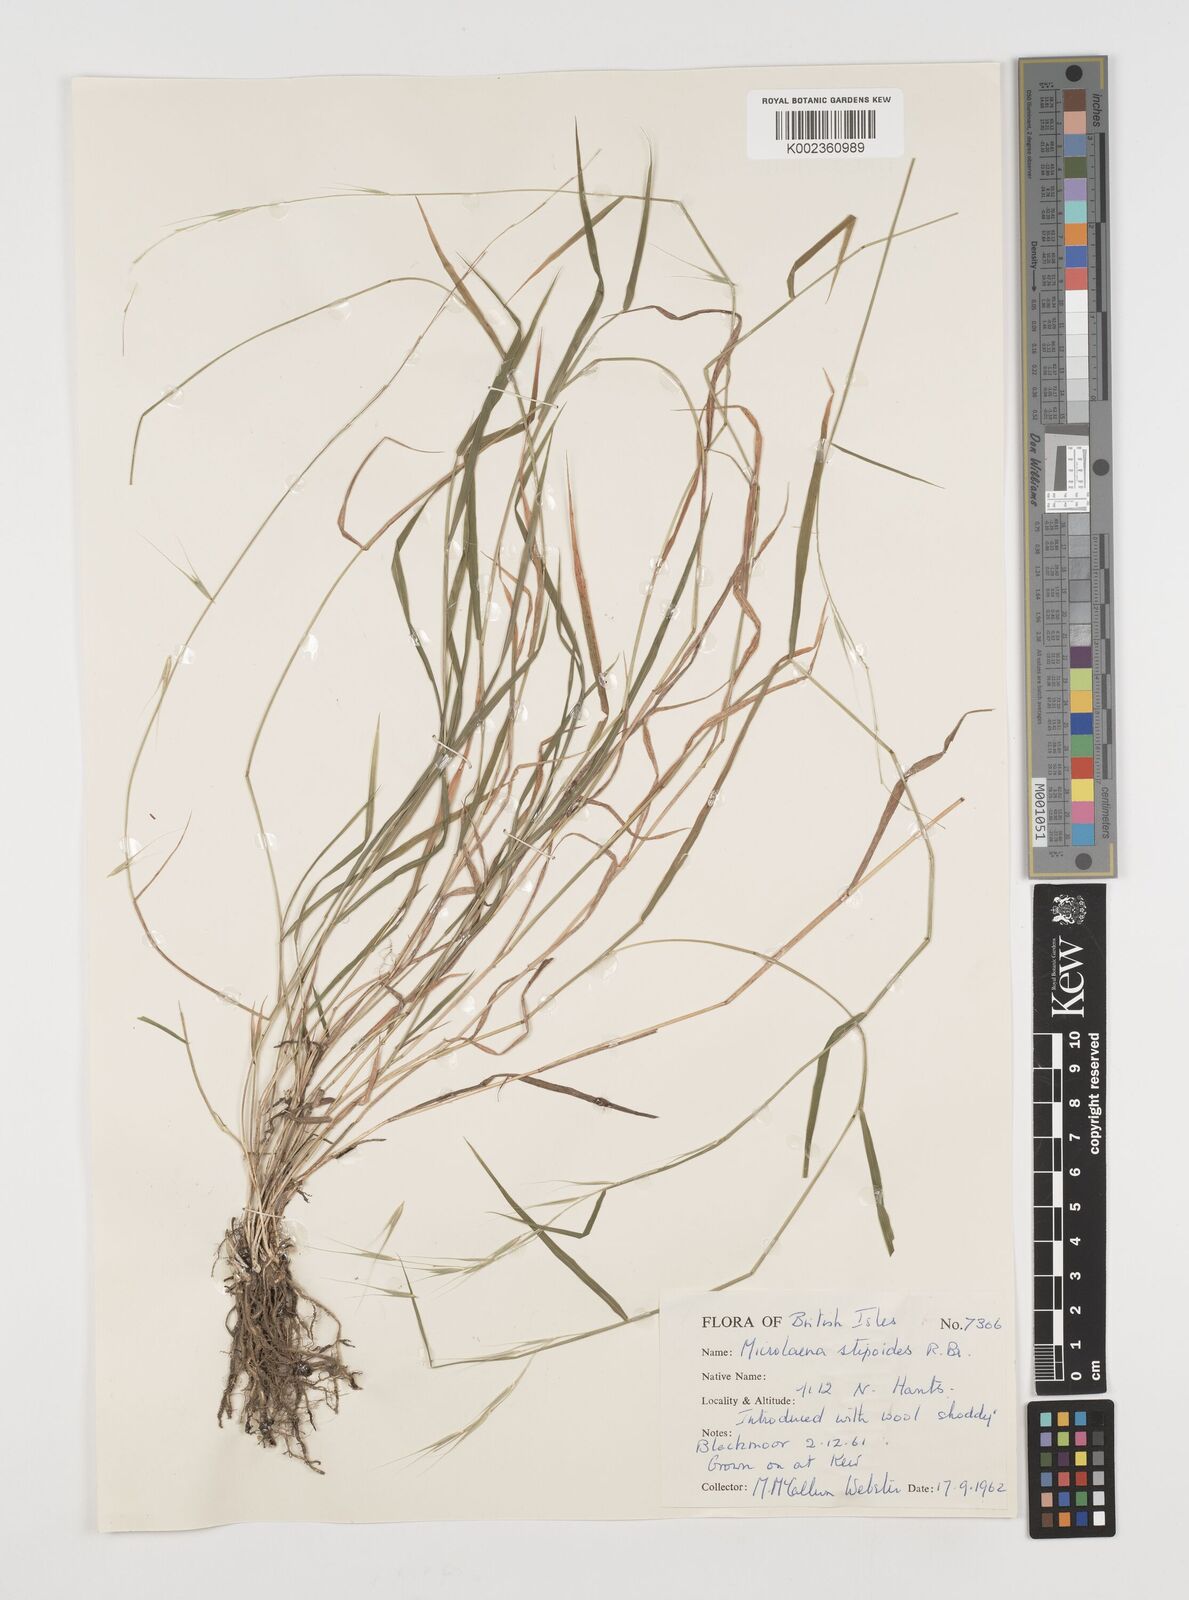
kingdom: Plantae
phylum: Tracheophyta
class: Liliopsida
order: Poales
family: Poaceae
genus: Microlaena
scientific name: Microlaena stipoides
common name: Meadow ricegrass
